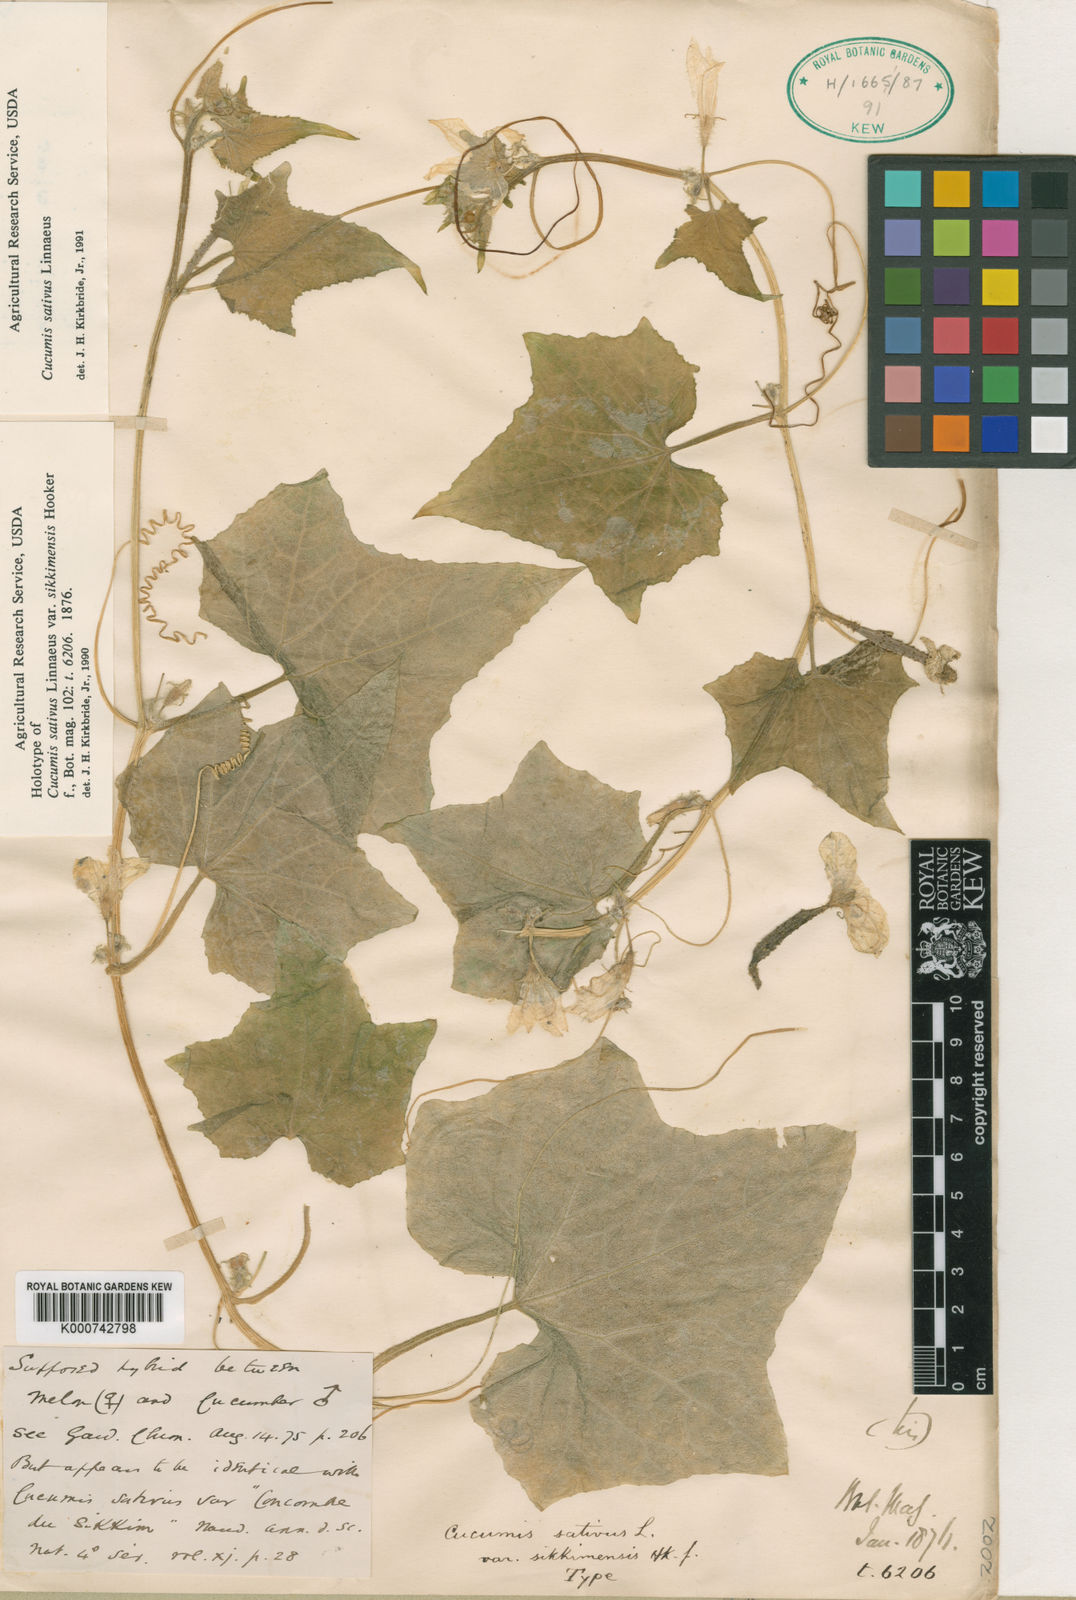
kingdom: Plantae
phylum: Tracheophyta
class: Magnoliopsida
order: Cucurbitales
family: Cucurbitaceae
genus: Cucumis
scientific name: Cucumis sativus
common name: Cucumber
